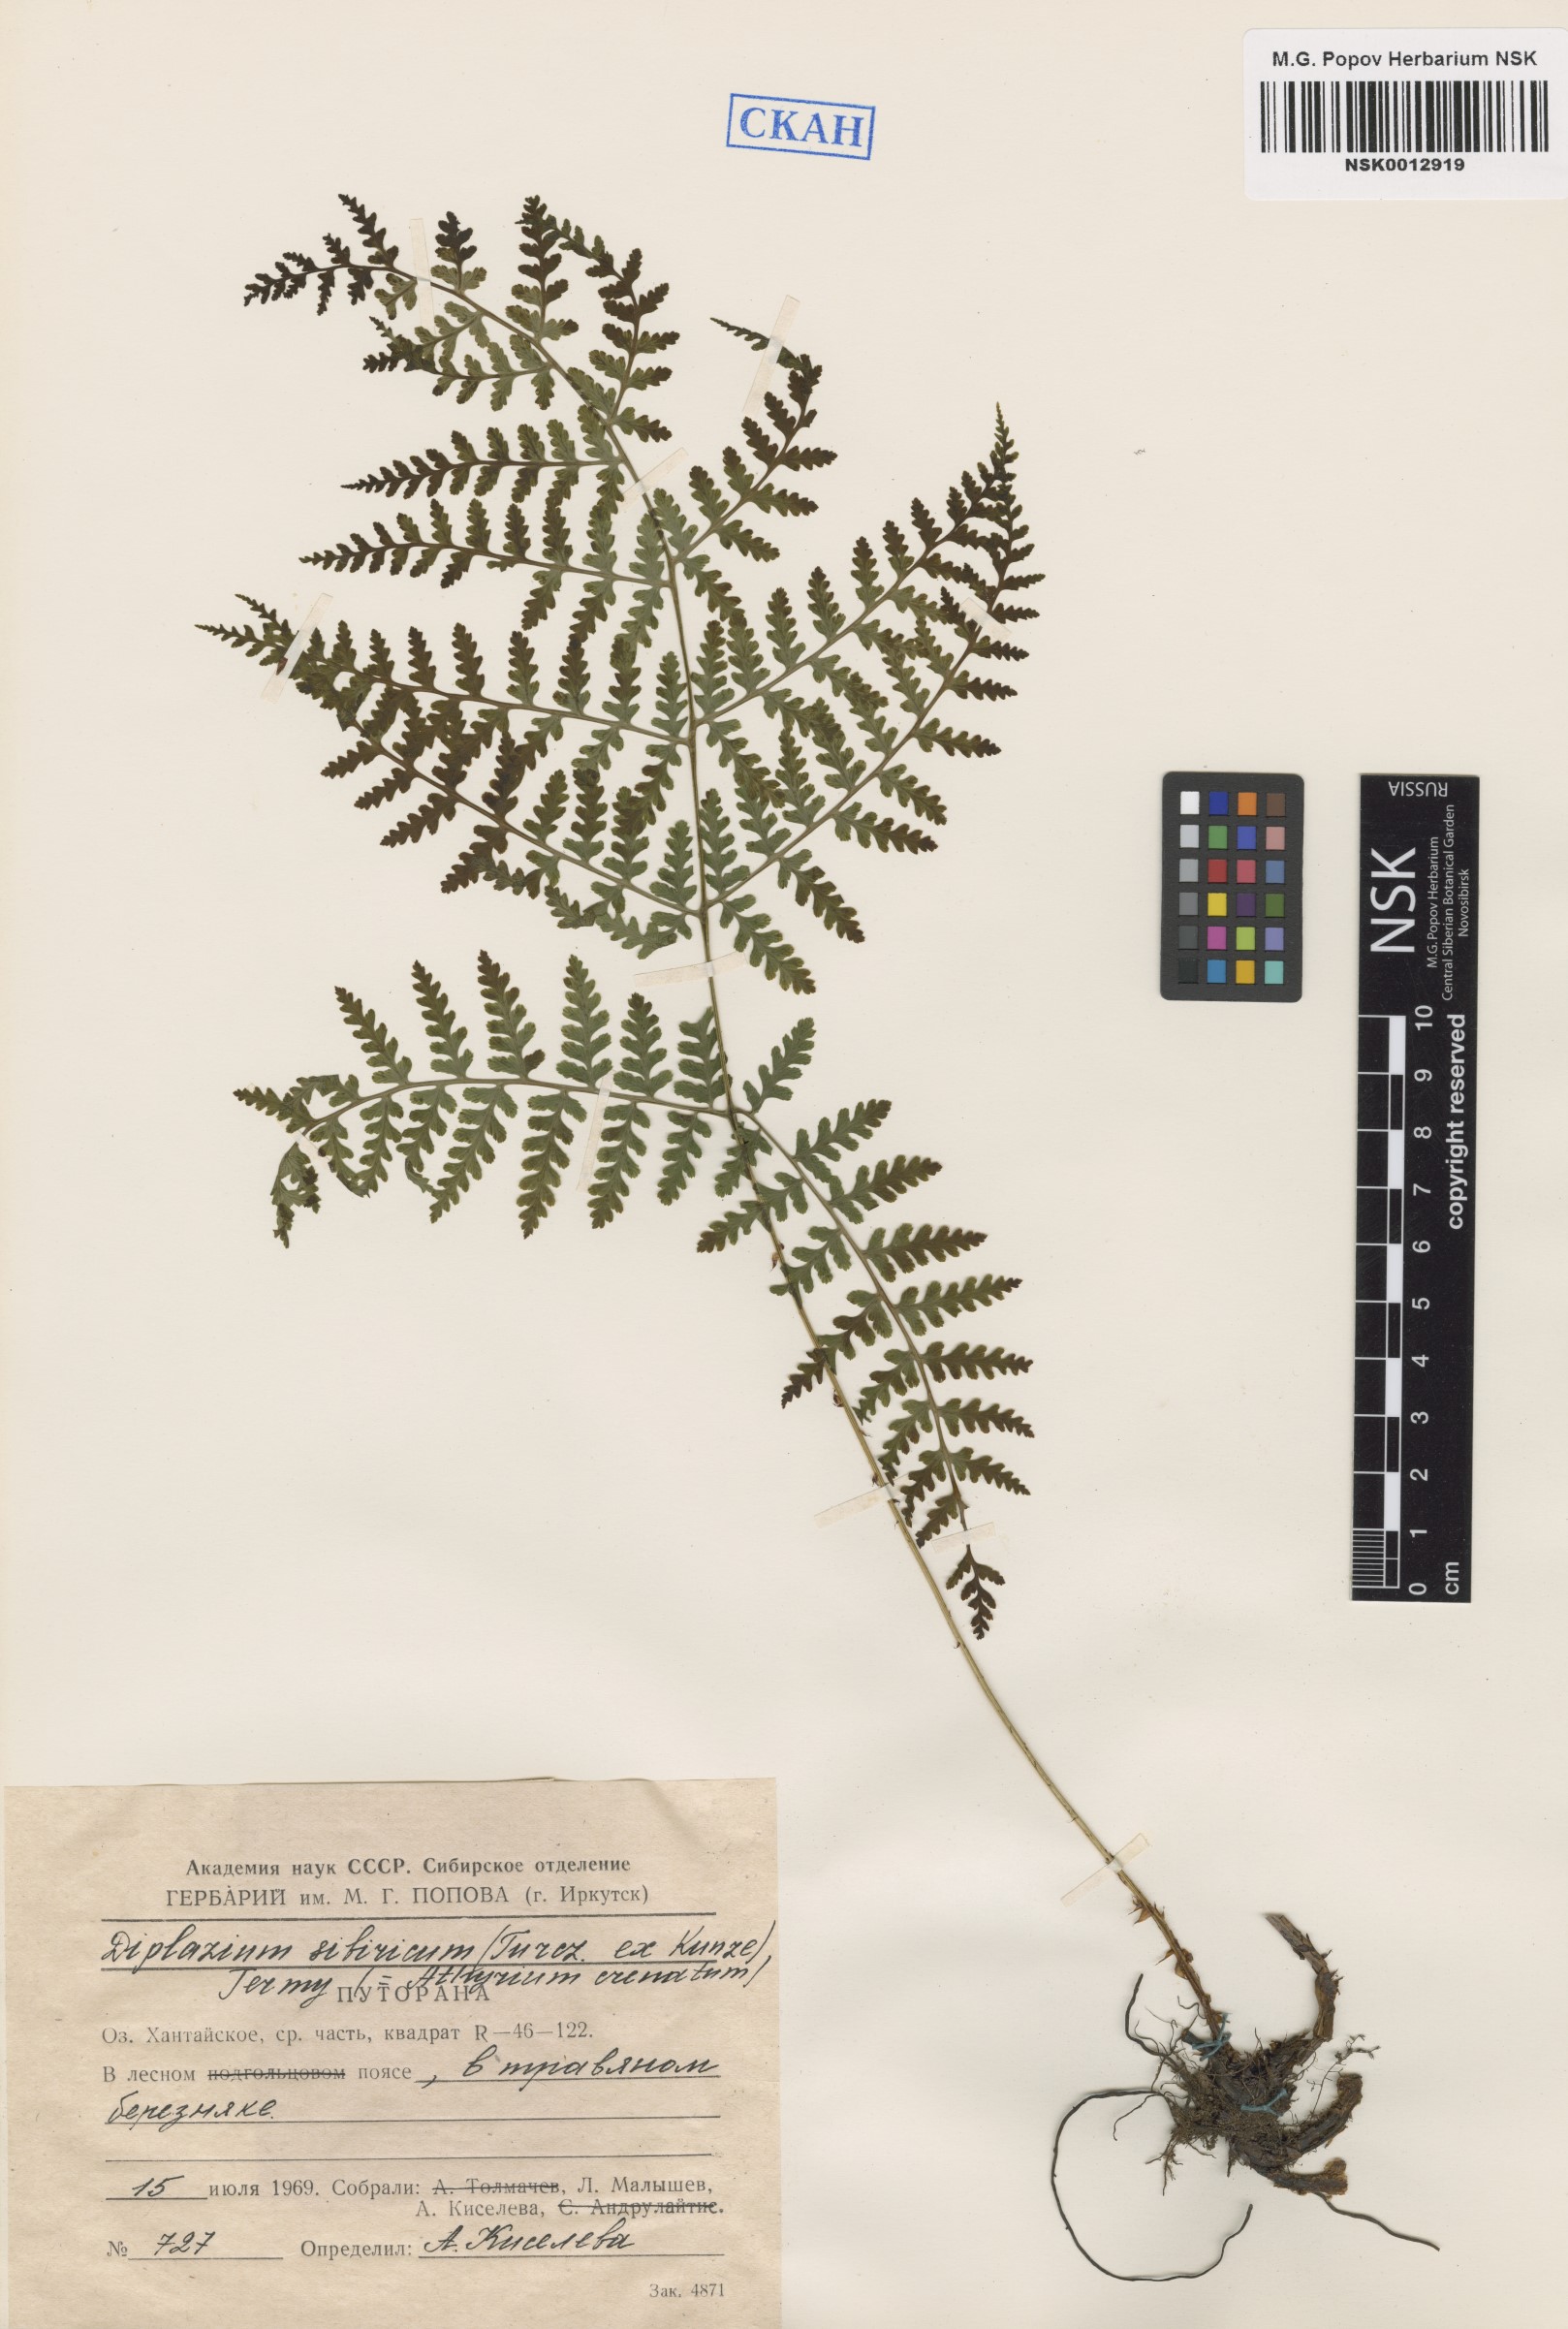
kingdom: Plantae
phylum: Tracheophyta
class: Polypodiopsida
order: Polypodiales
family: Athyriaceae
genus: Diplazium
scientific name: Diplazium sibiricum
